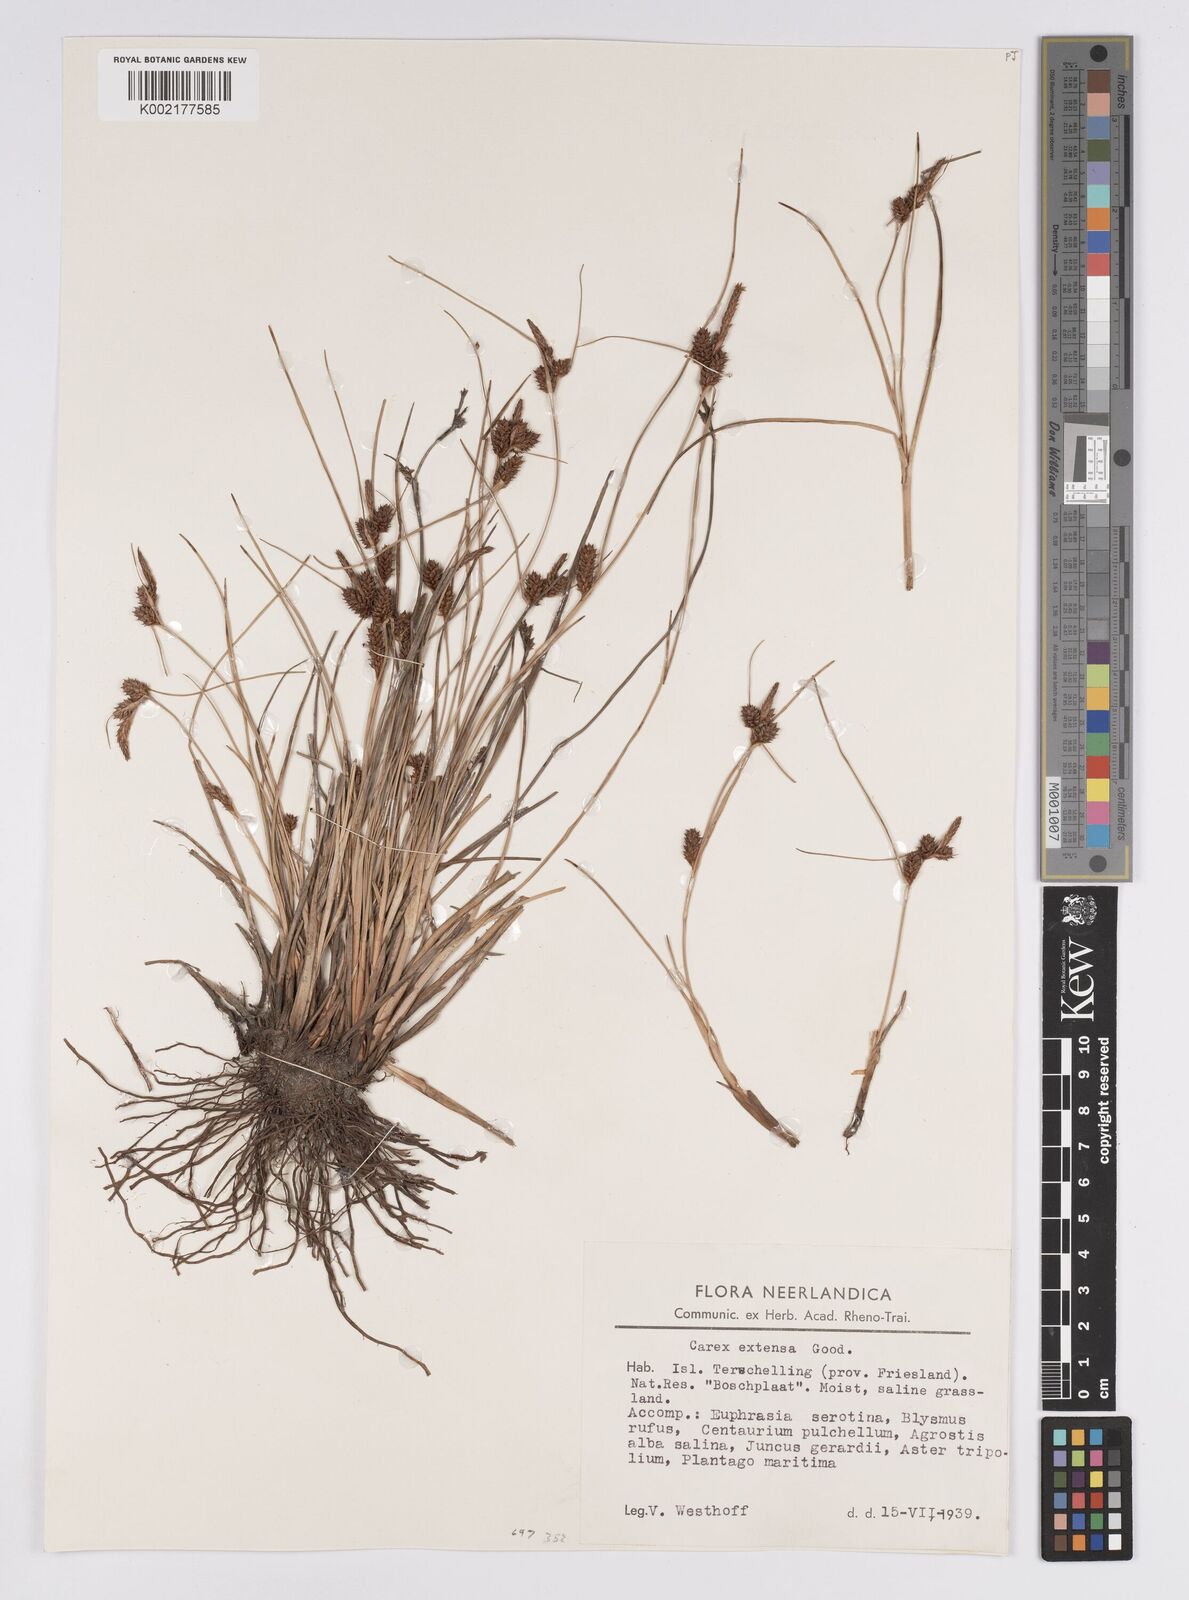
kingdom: Plantae
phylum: Tracheophyta
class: Liliopsida
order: Poales
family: Cyperaceae
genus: Carex
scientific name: Carex extensa
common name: Long-bracted sedge
